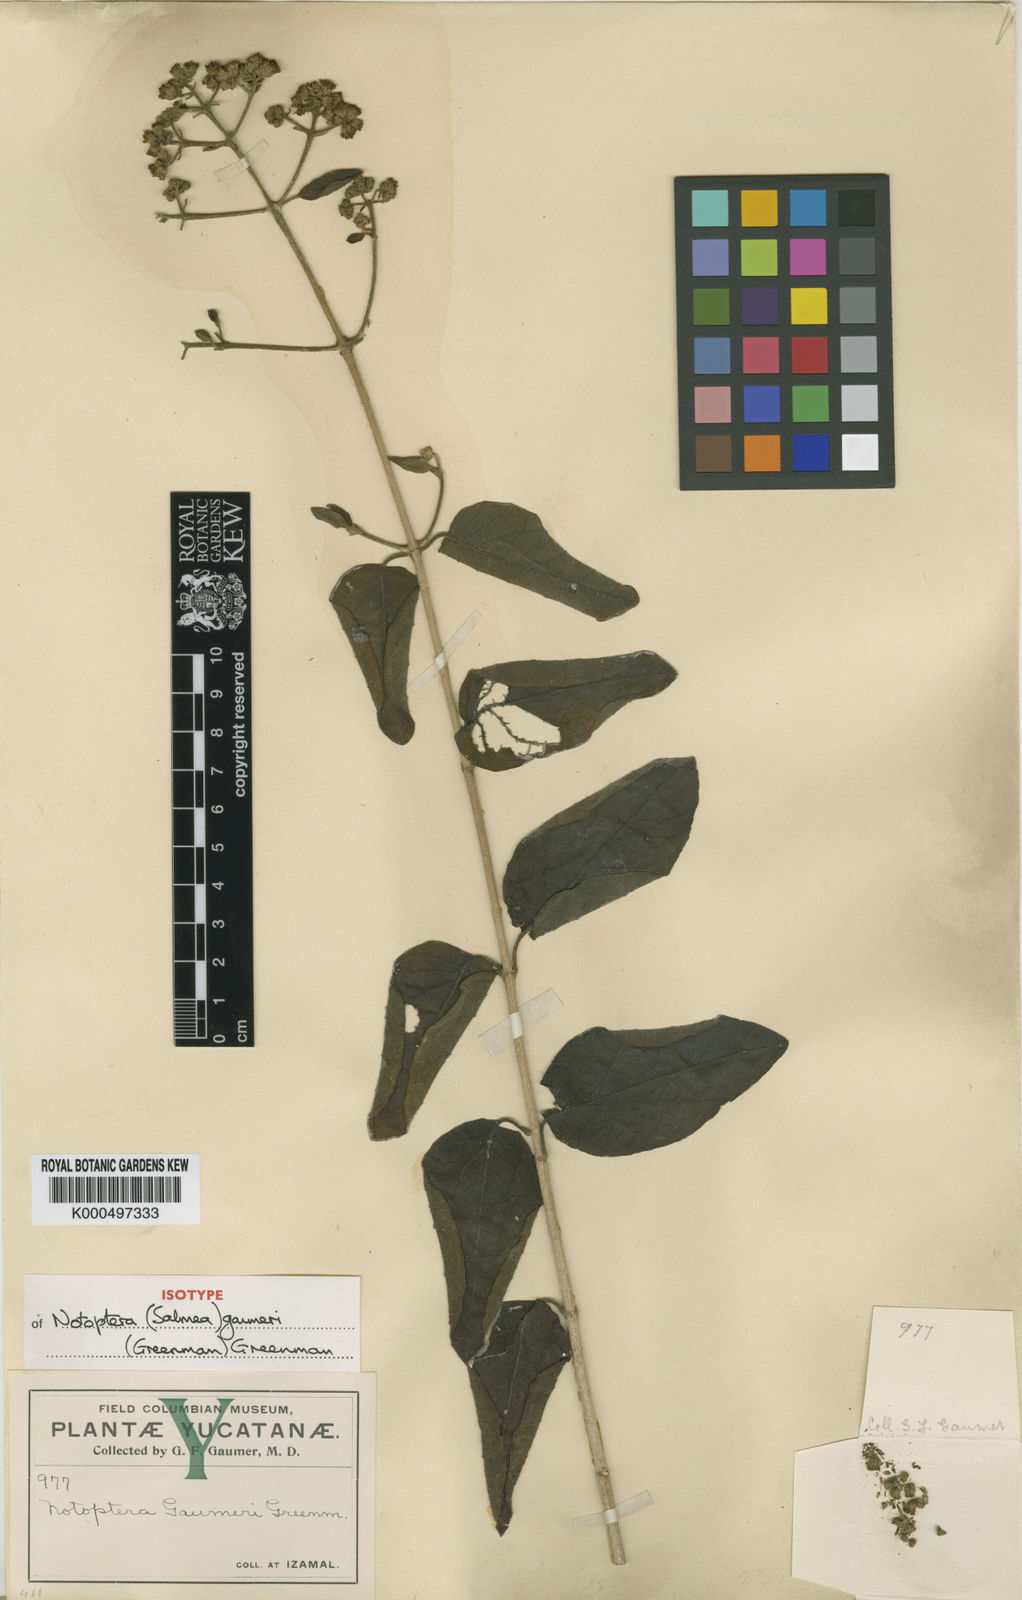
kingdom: Plantae
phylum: Tracheophyta
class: Magnoliopsida
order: Asterales
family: Asteraceae
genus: Otopappus
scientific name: Otopappus guatemalensis
